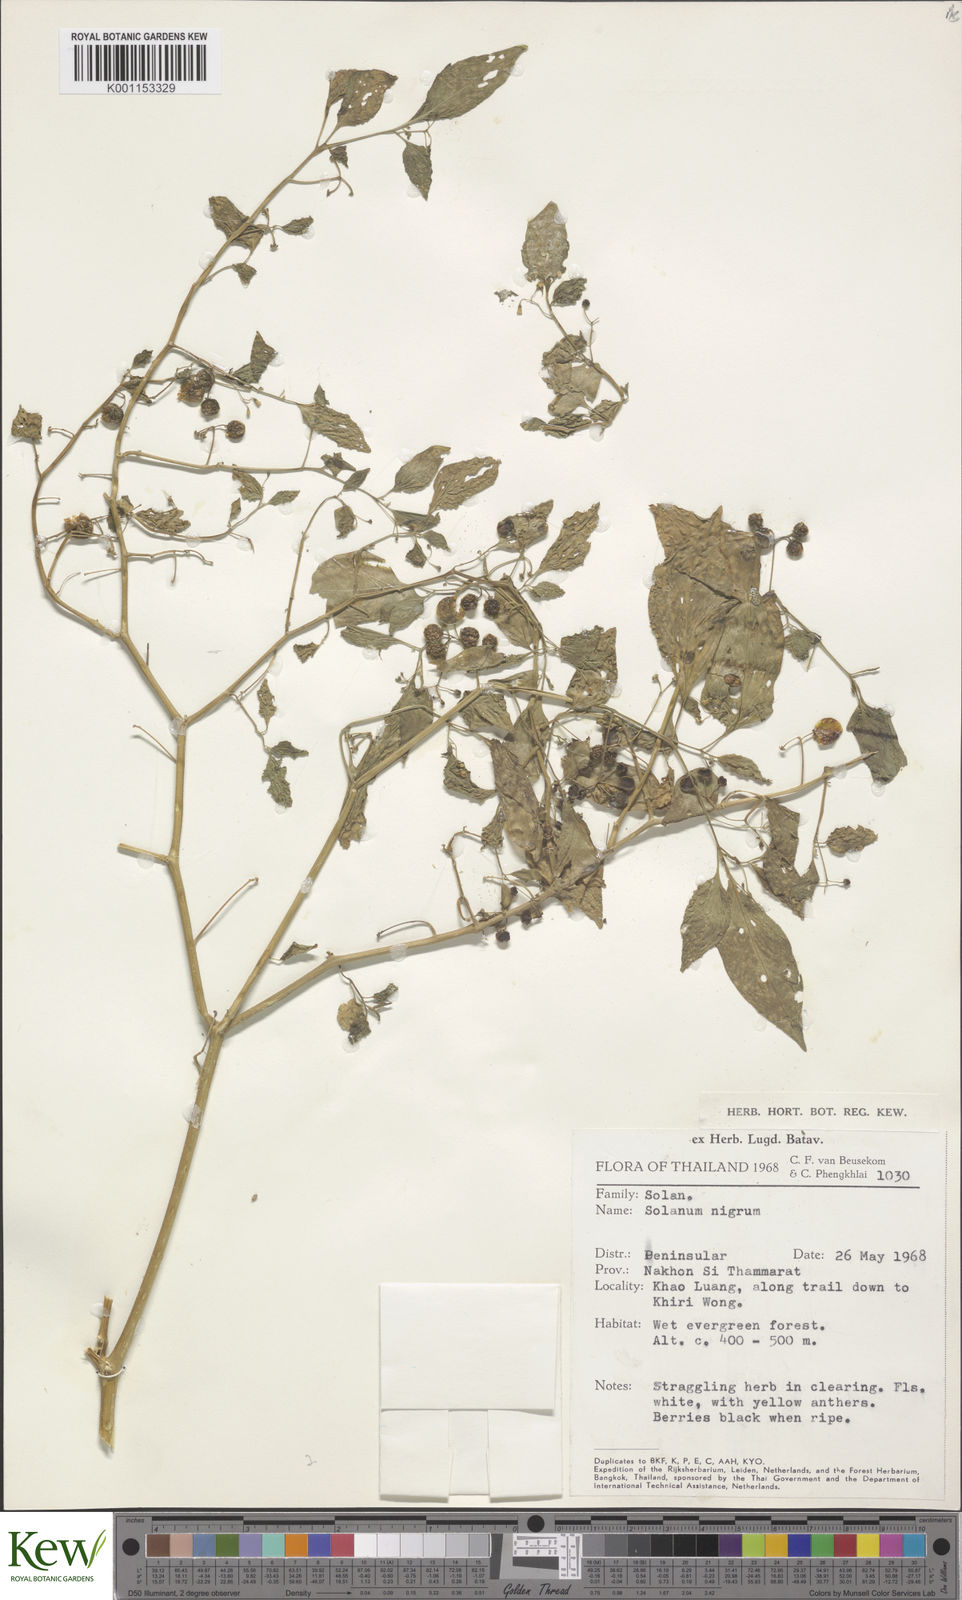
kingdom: Plantae
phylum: Tracheophyta
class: Magnoliopsida
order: Solanales
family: Solanaceae
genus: Solanum
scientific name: Solanum americanum
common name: American black nightshade
